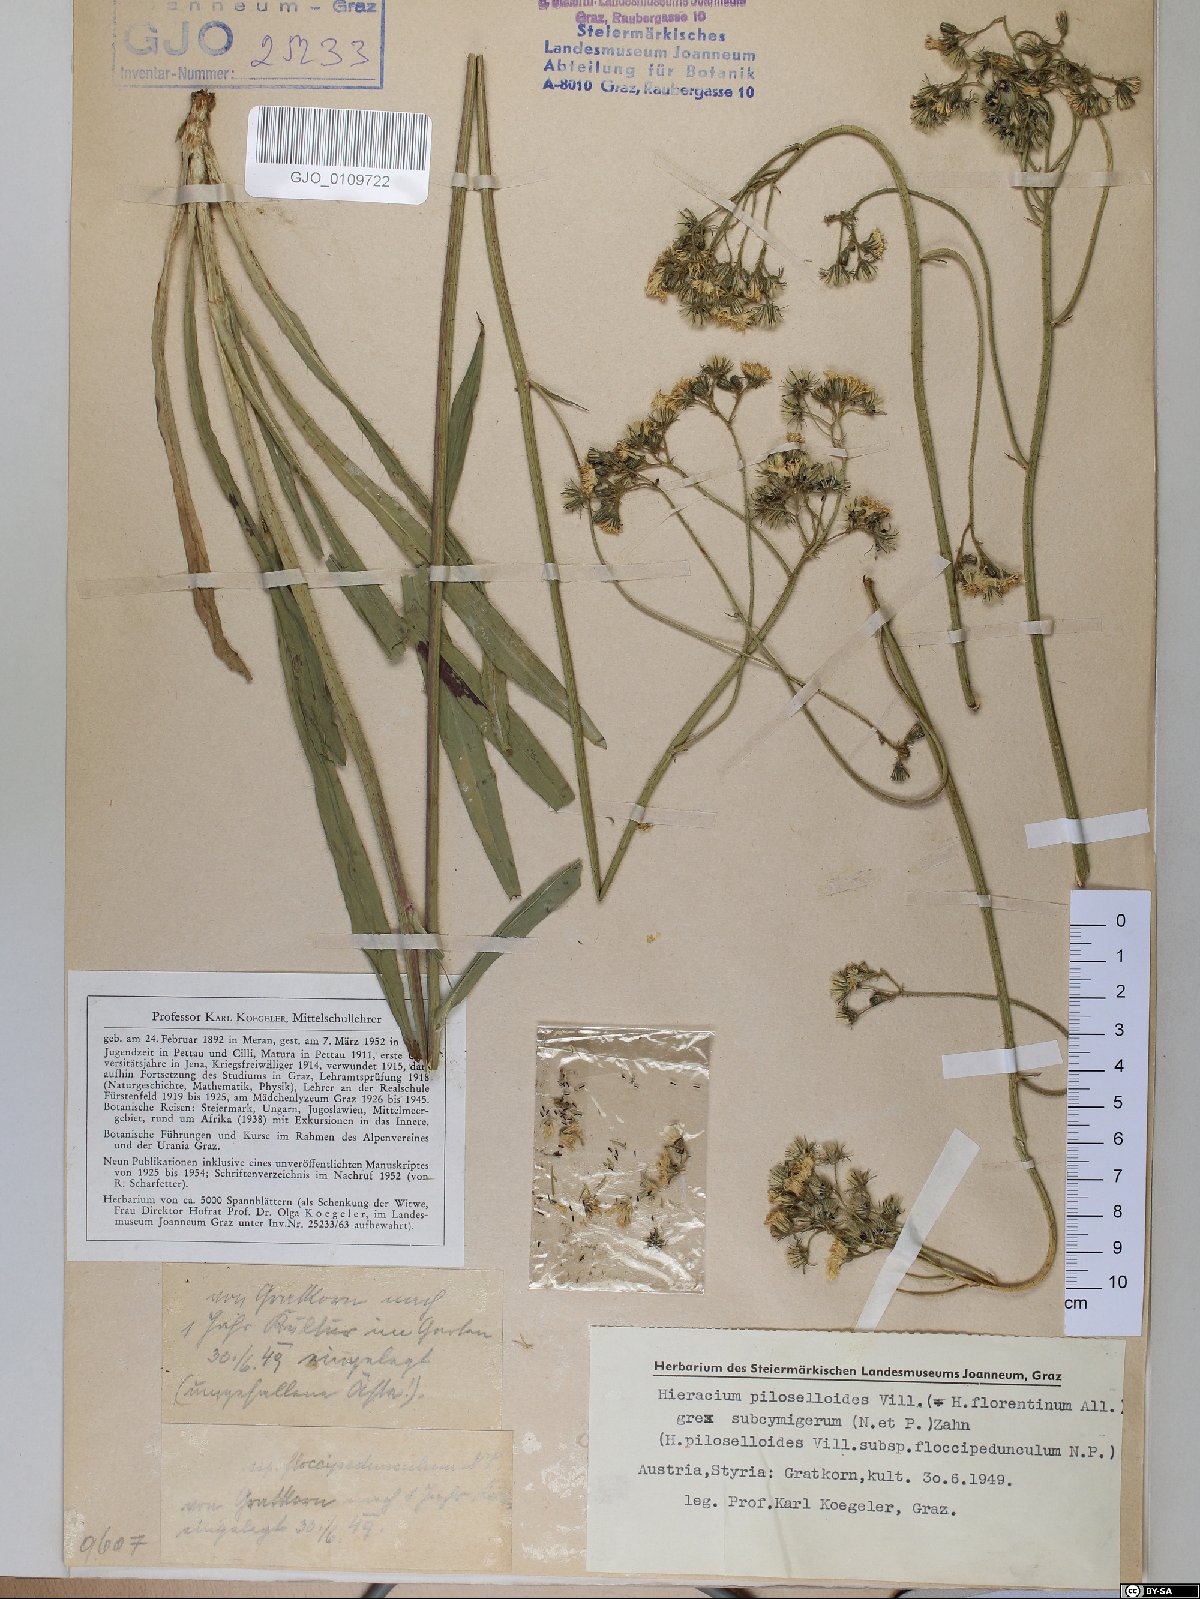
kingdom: Plantae
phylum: Tracheophyta
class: Magnoliopsida
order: Asterales
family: Asteraceae
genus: Pilosella
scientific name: Pilosella piloselloides
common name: Glaucous king-devil
